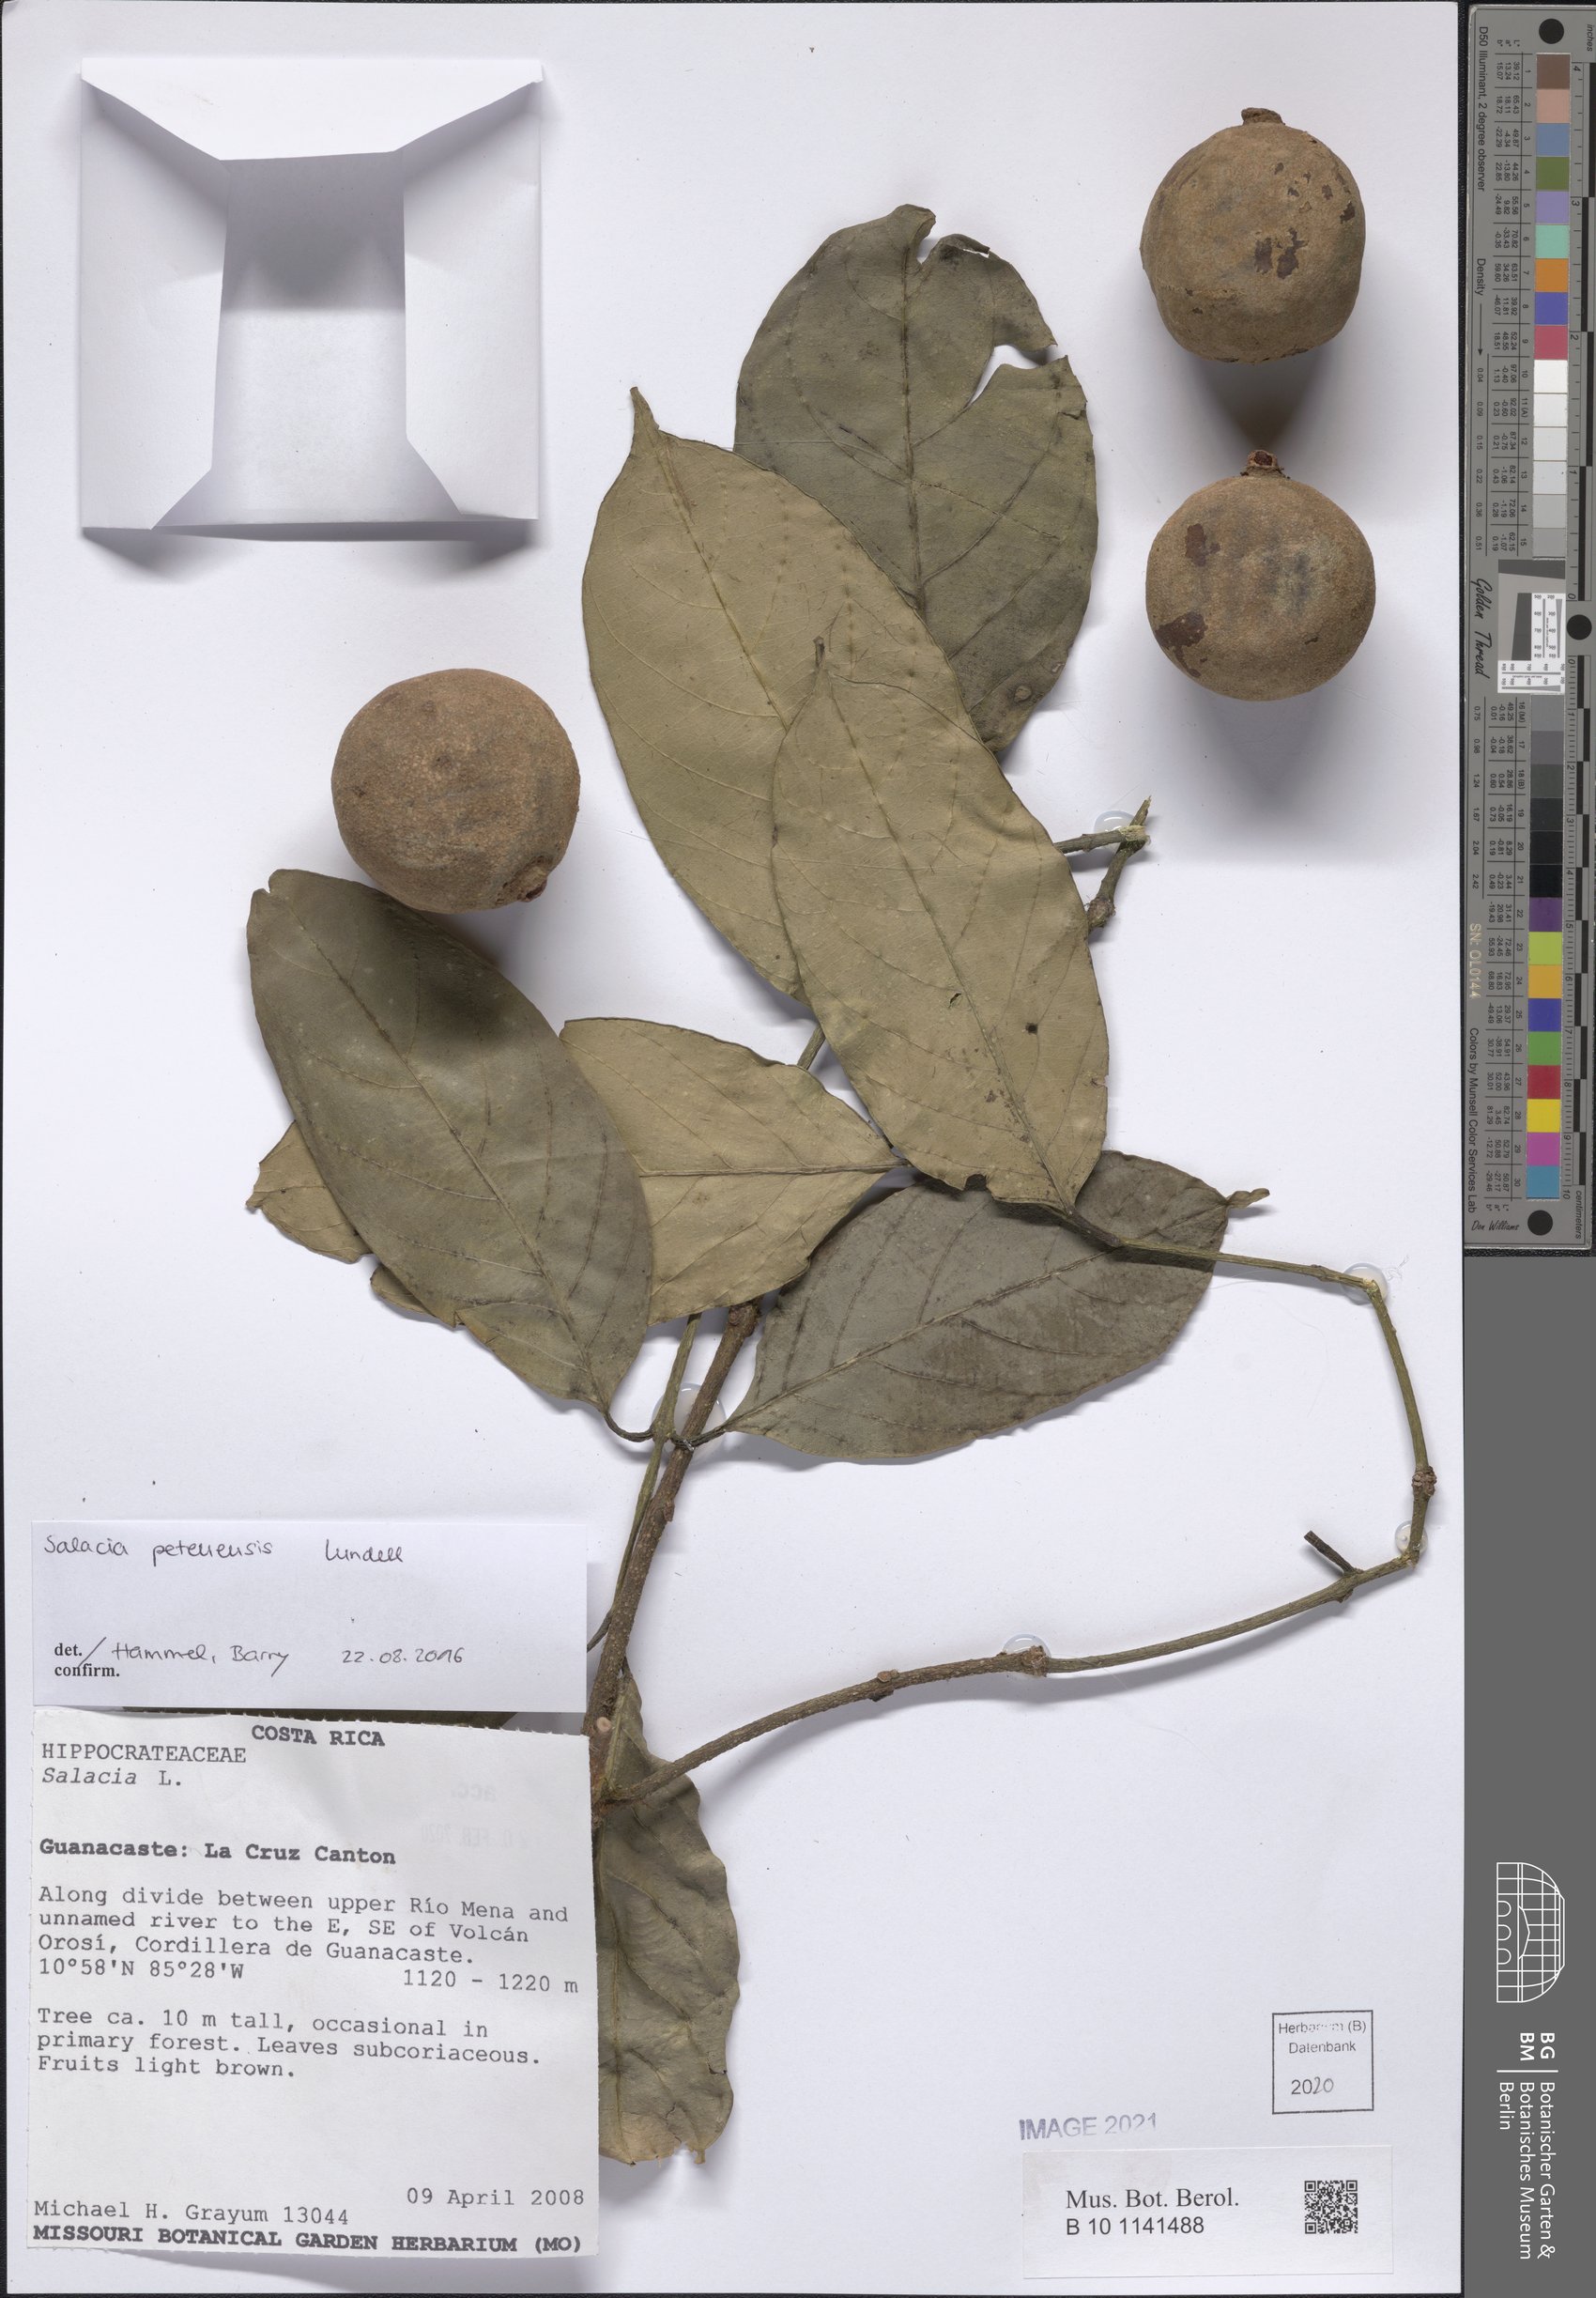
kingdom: Plantae
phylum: Tracheophyta
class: Magnoliopsida
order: Celastrales
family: Celastraceae
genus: Salacia
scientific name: Salacia cordata
